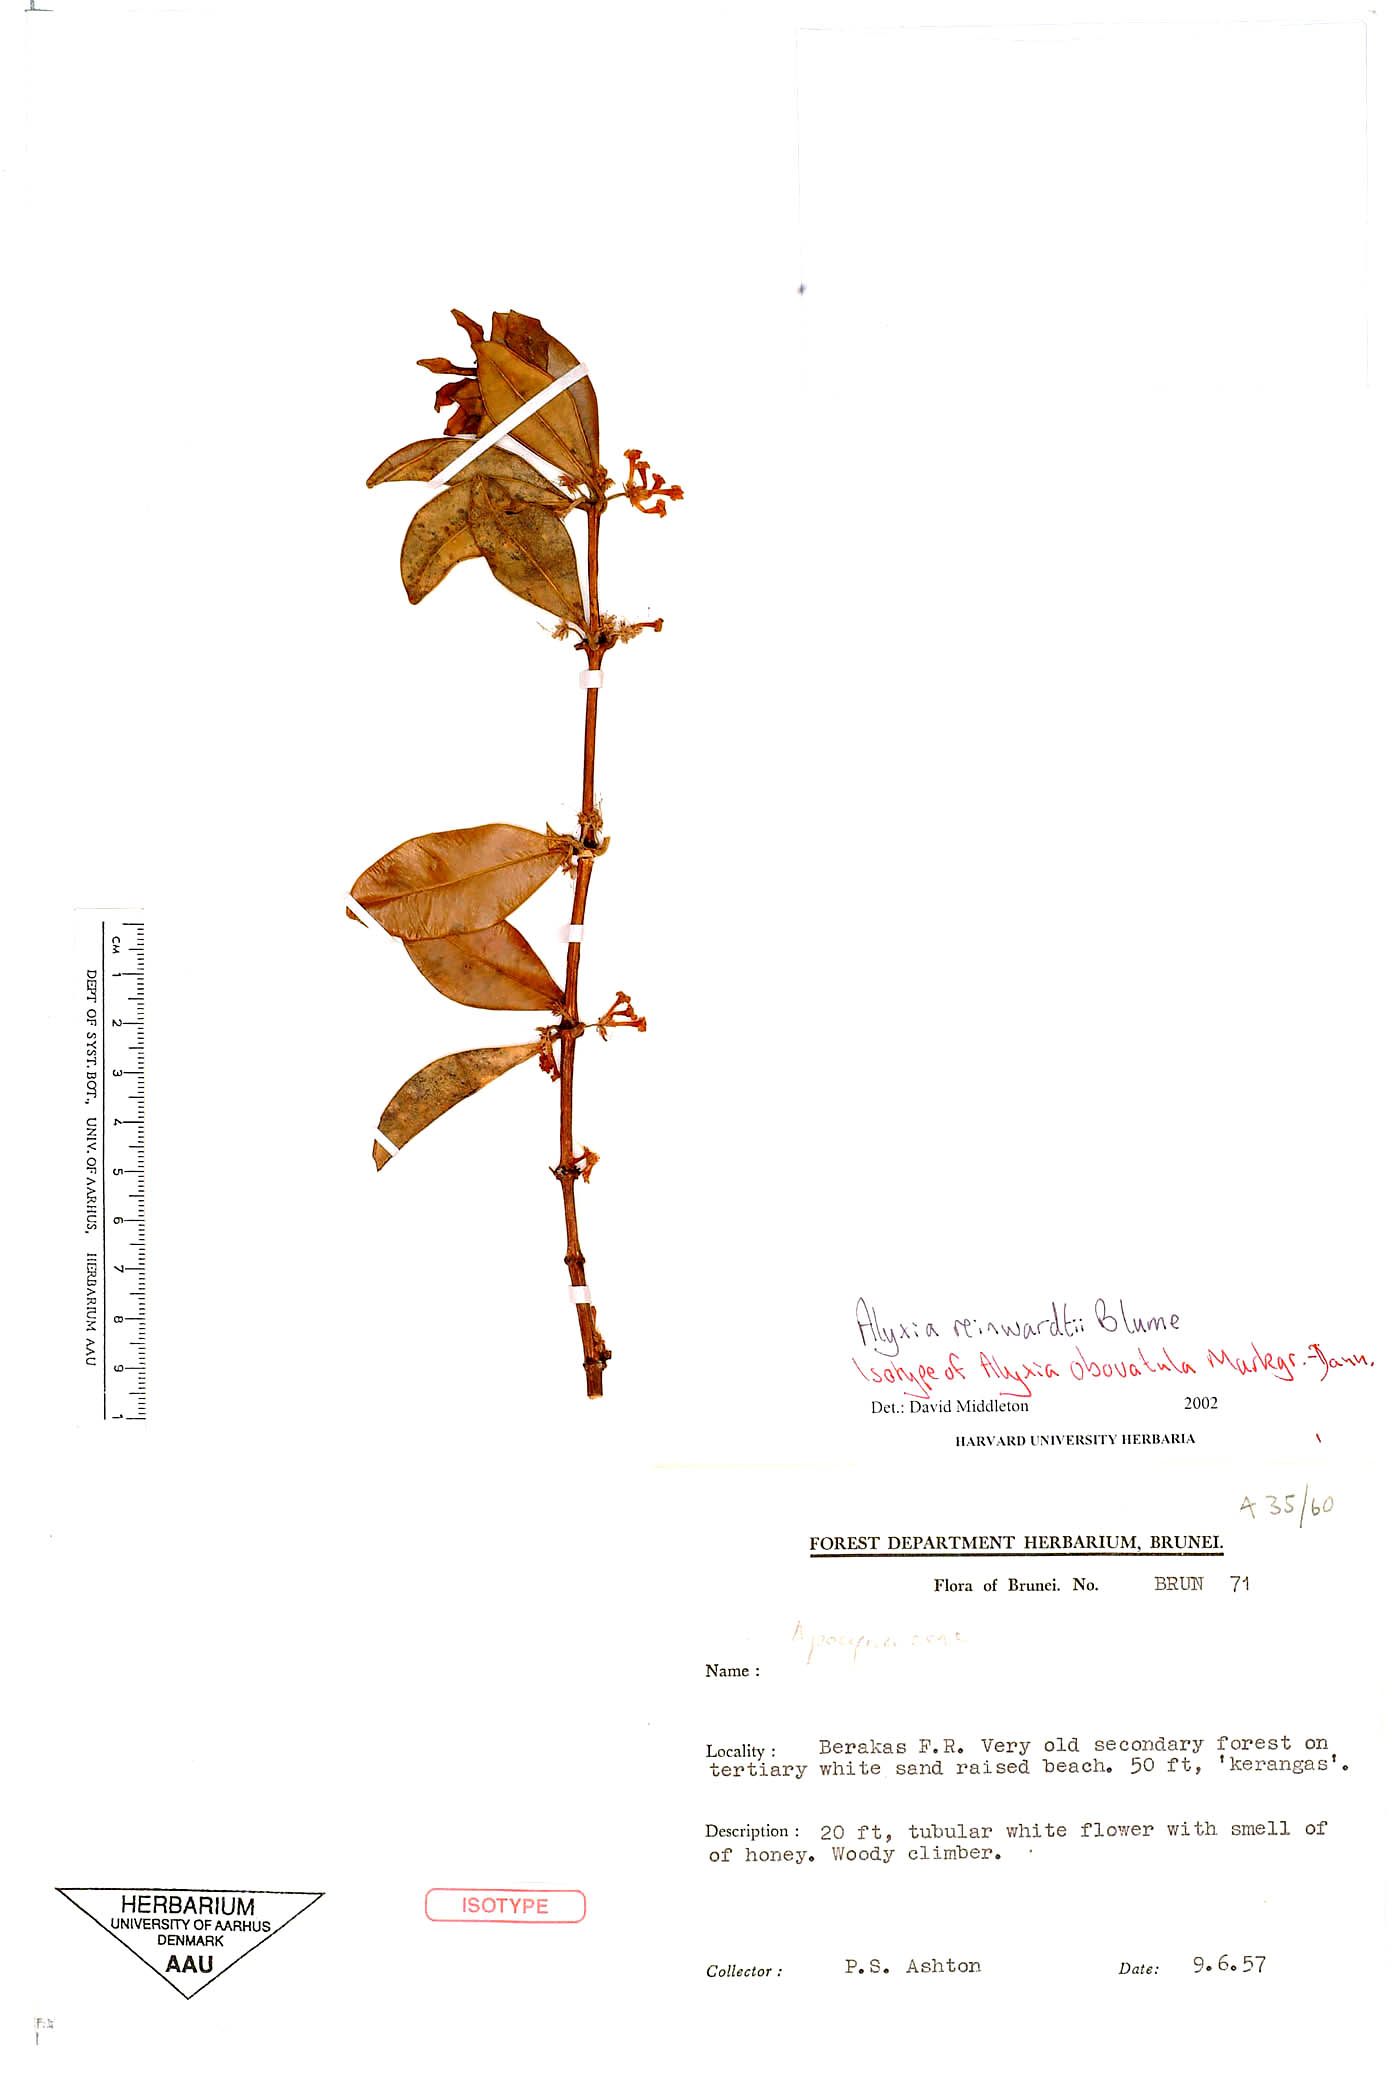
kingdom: Plantae
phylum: Tracheophyta
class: Magnoliopsida
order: Gentianales
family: Apocynaceae
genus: Alyxia
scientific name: Alyxia reinwardtii
